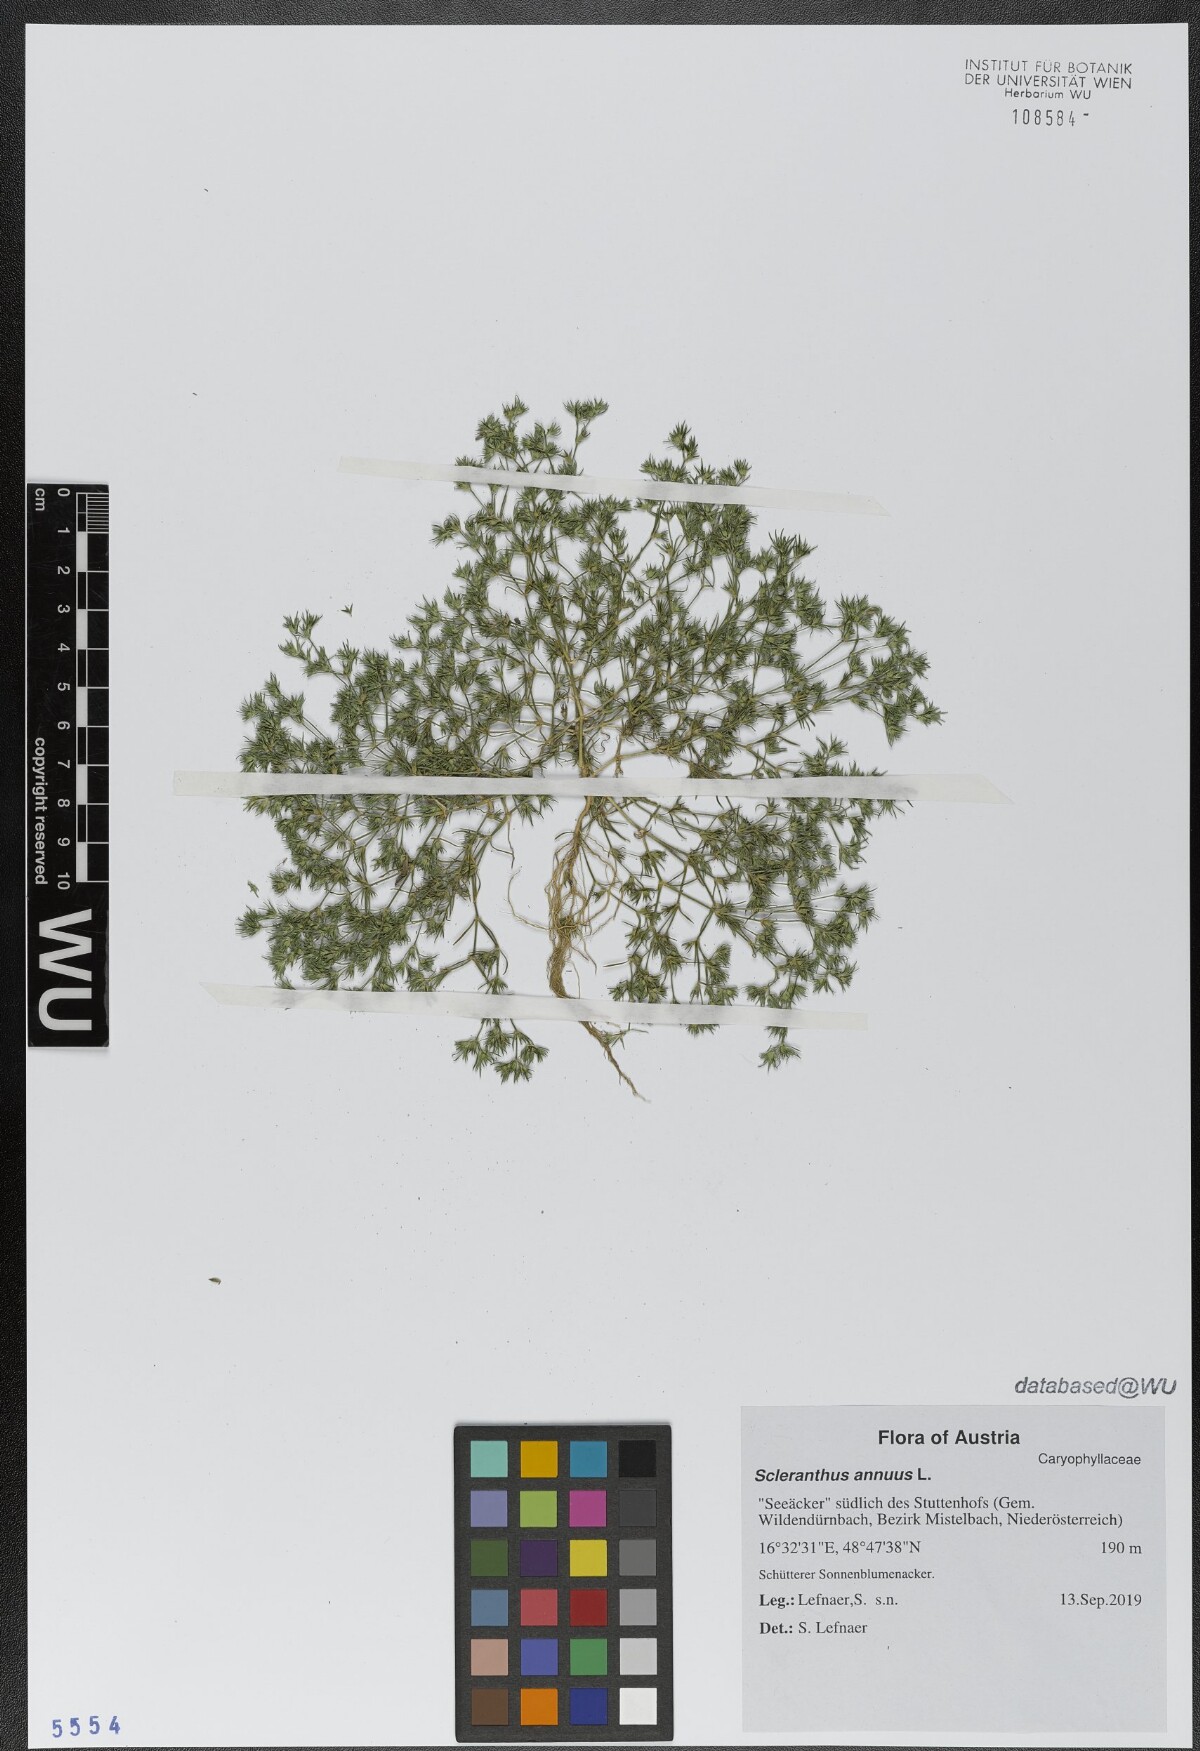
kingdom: Plantae
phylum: Tracheophyta
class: Magnoliopsida
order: Caryophyllales
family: Caryophyllaceae
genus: Scleranthus
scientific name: Scleranthus annuus
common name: Annual knawel
